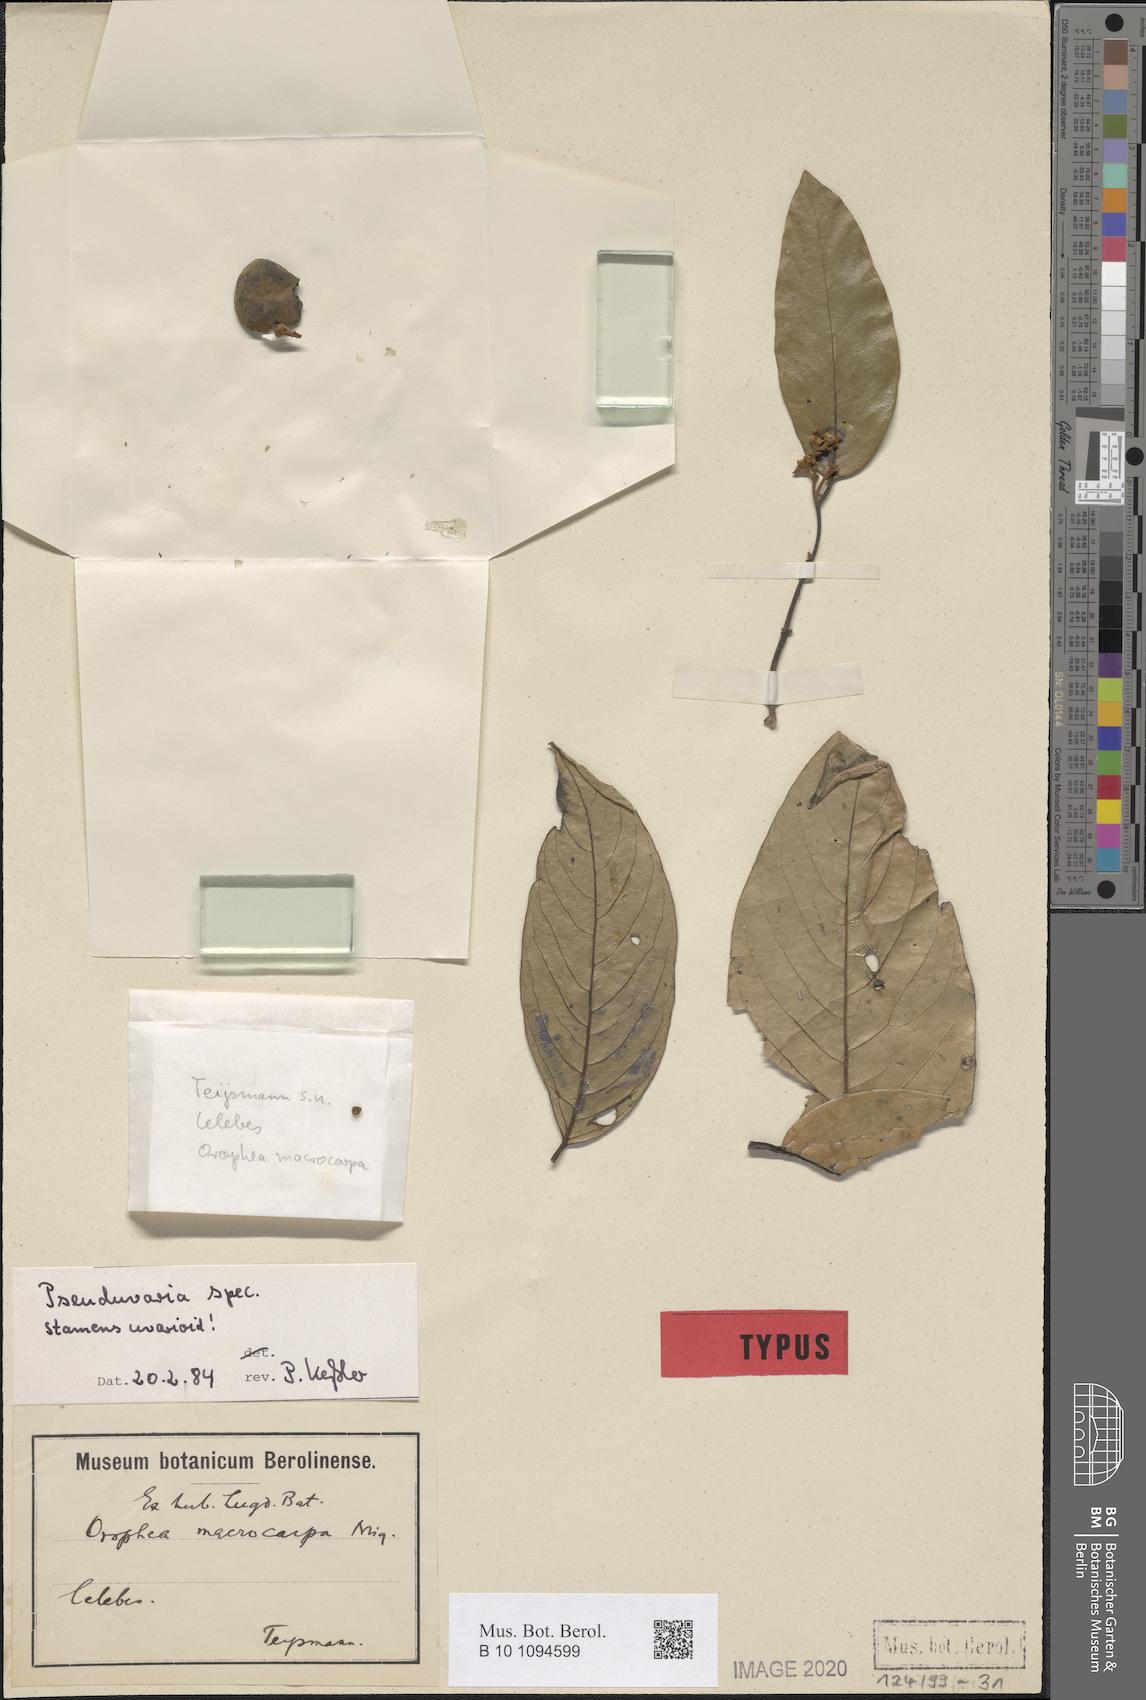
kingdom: Plantae
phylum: Tracheophyta
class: Magnoliopsida
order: Magnoliales
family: Annonaceae
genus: Mitrephora
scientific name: Mitrephora macrocarpa
